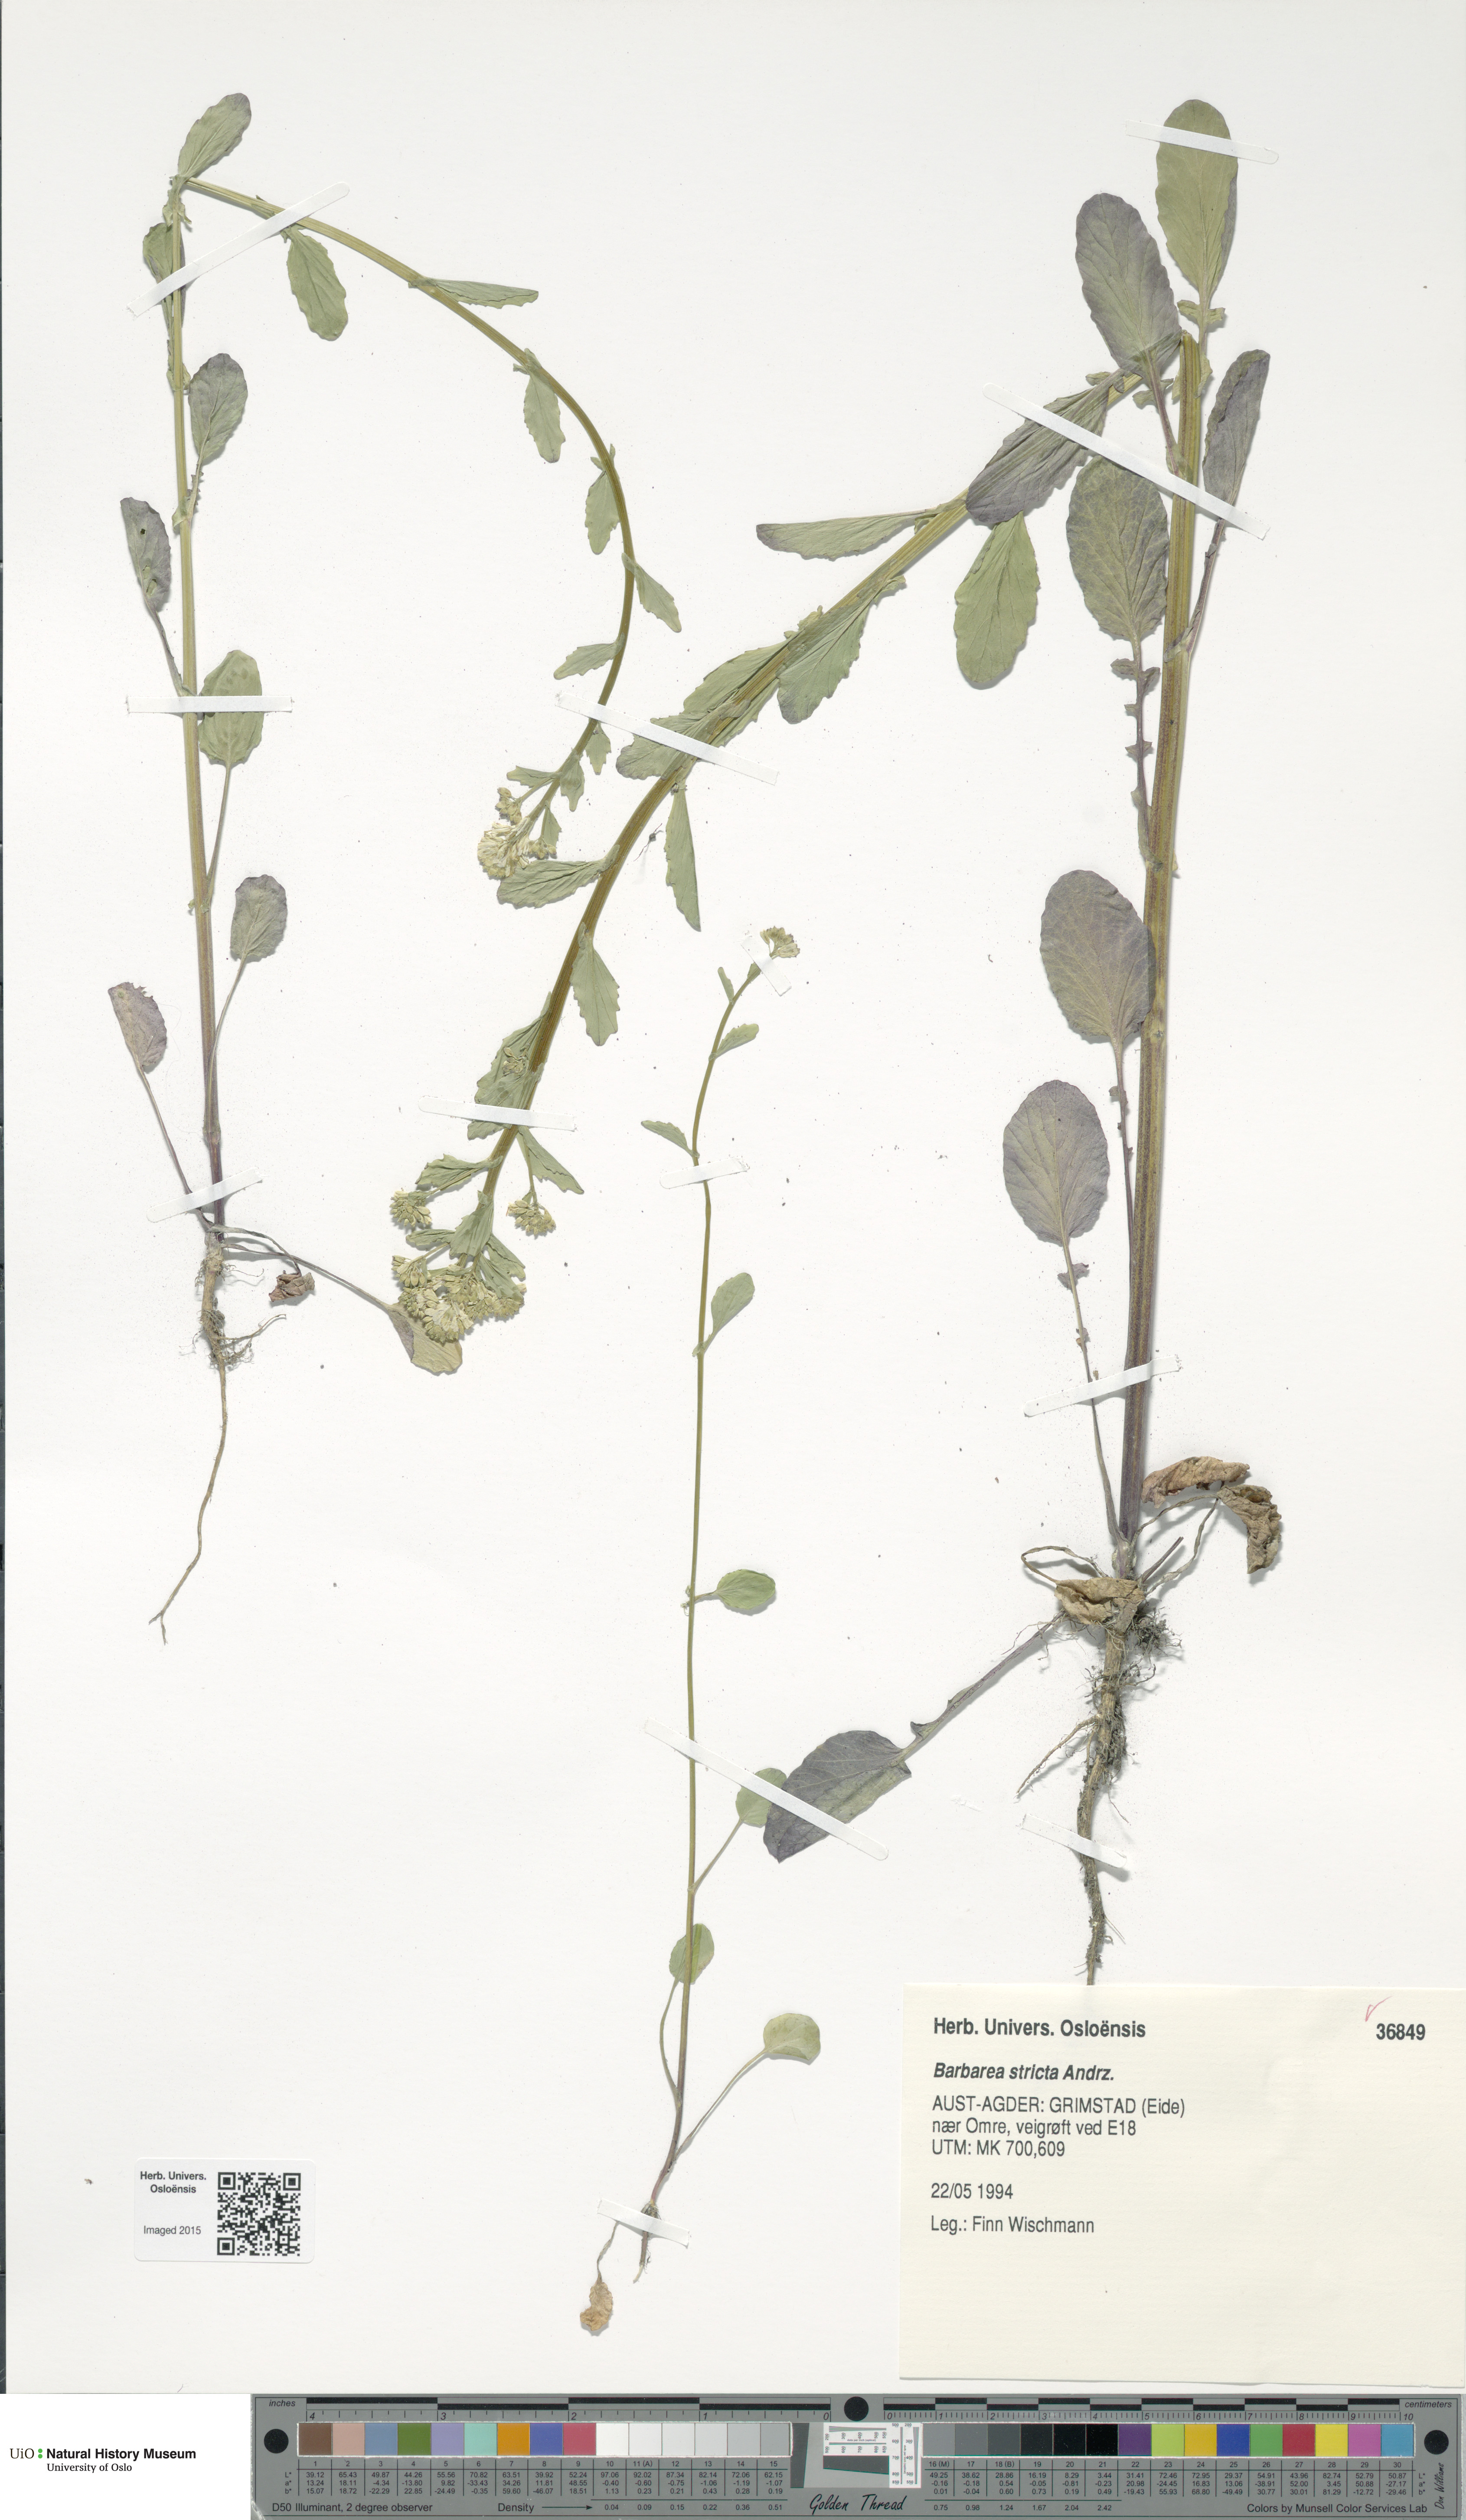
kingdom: Plantae
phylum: Tracheophyta
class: Magnoliopsida
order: Brassicales
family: Brassicaceae
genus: Barbarea
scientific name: Barbarea stricta
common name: Small-flowered winter-cress
